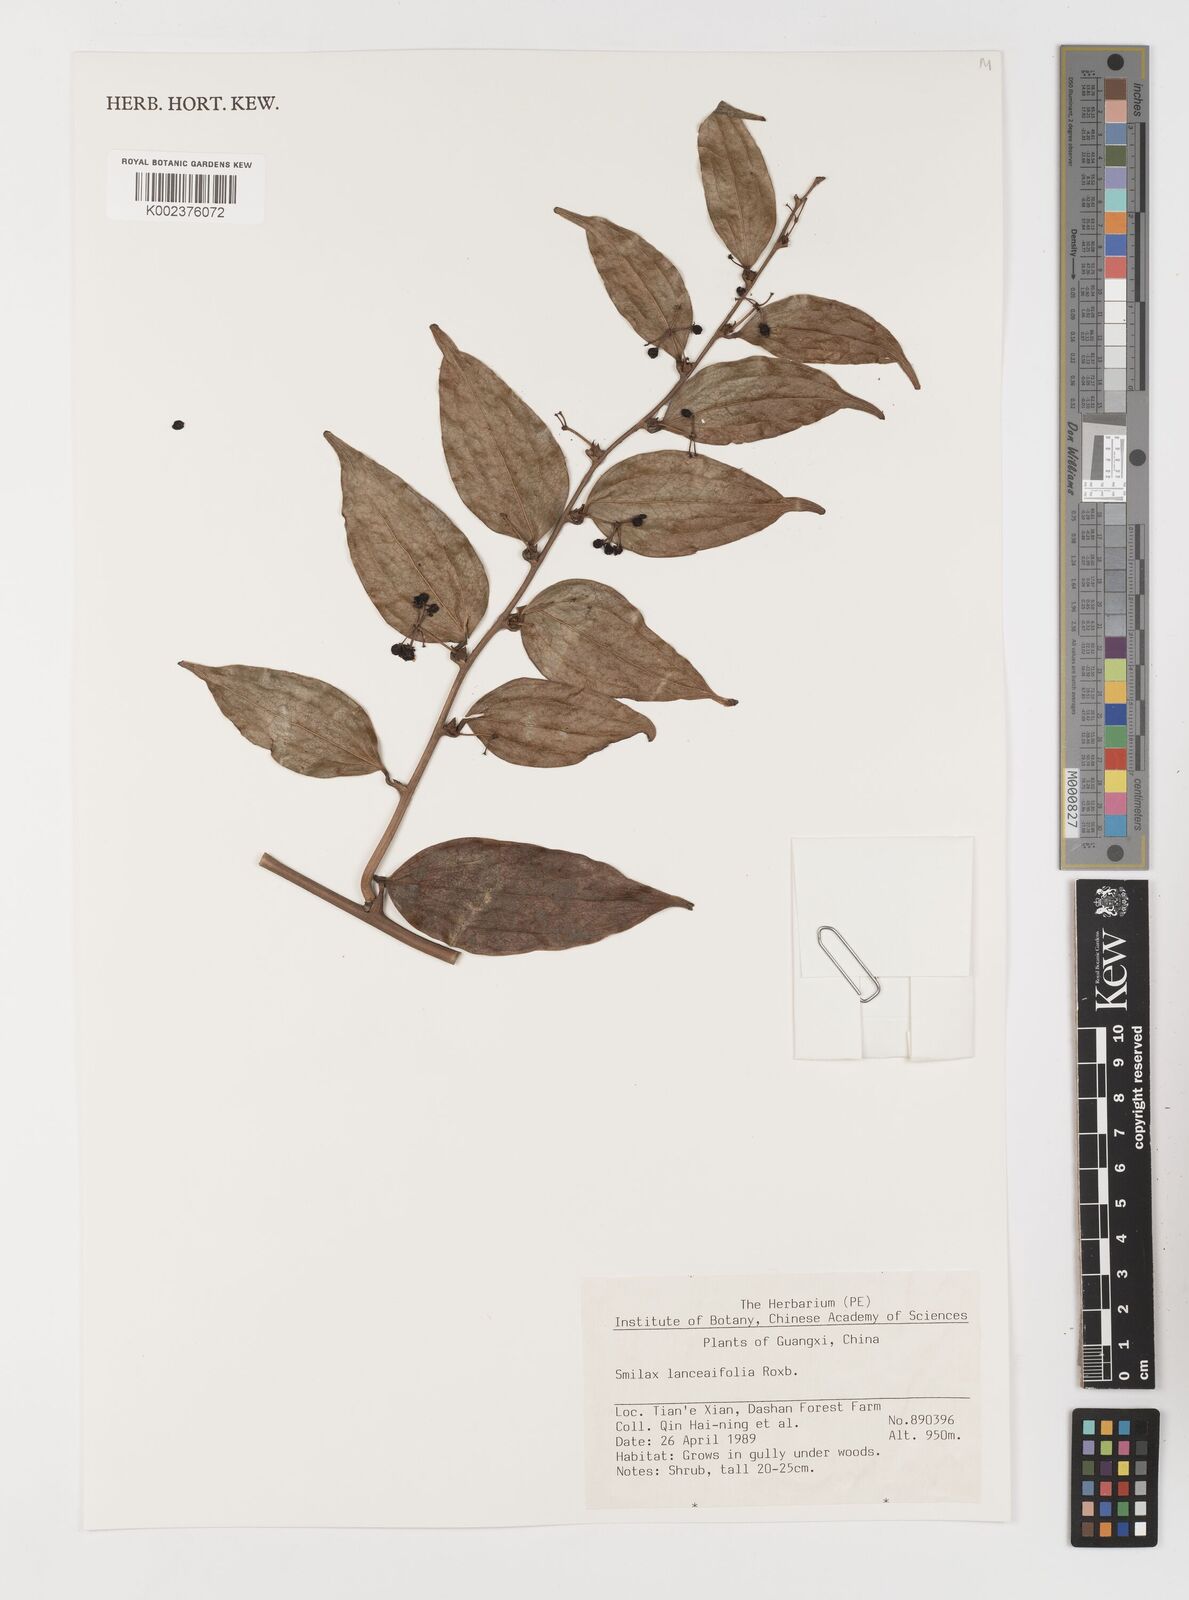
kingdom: Plantae
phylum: Tracheophyta
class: Liliopsida
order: Liliales
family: Smilacaceae
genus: Smilax
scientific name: Smilax lanceifolia
